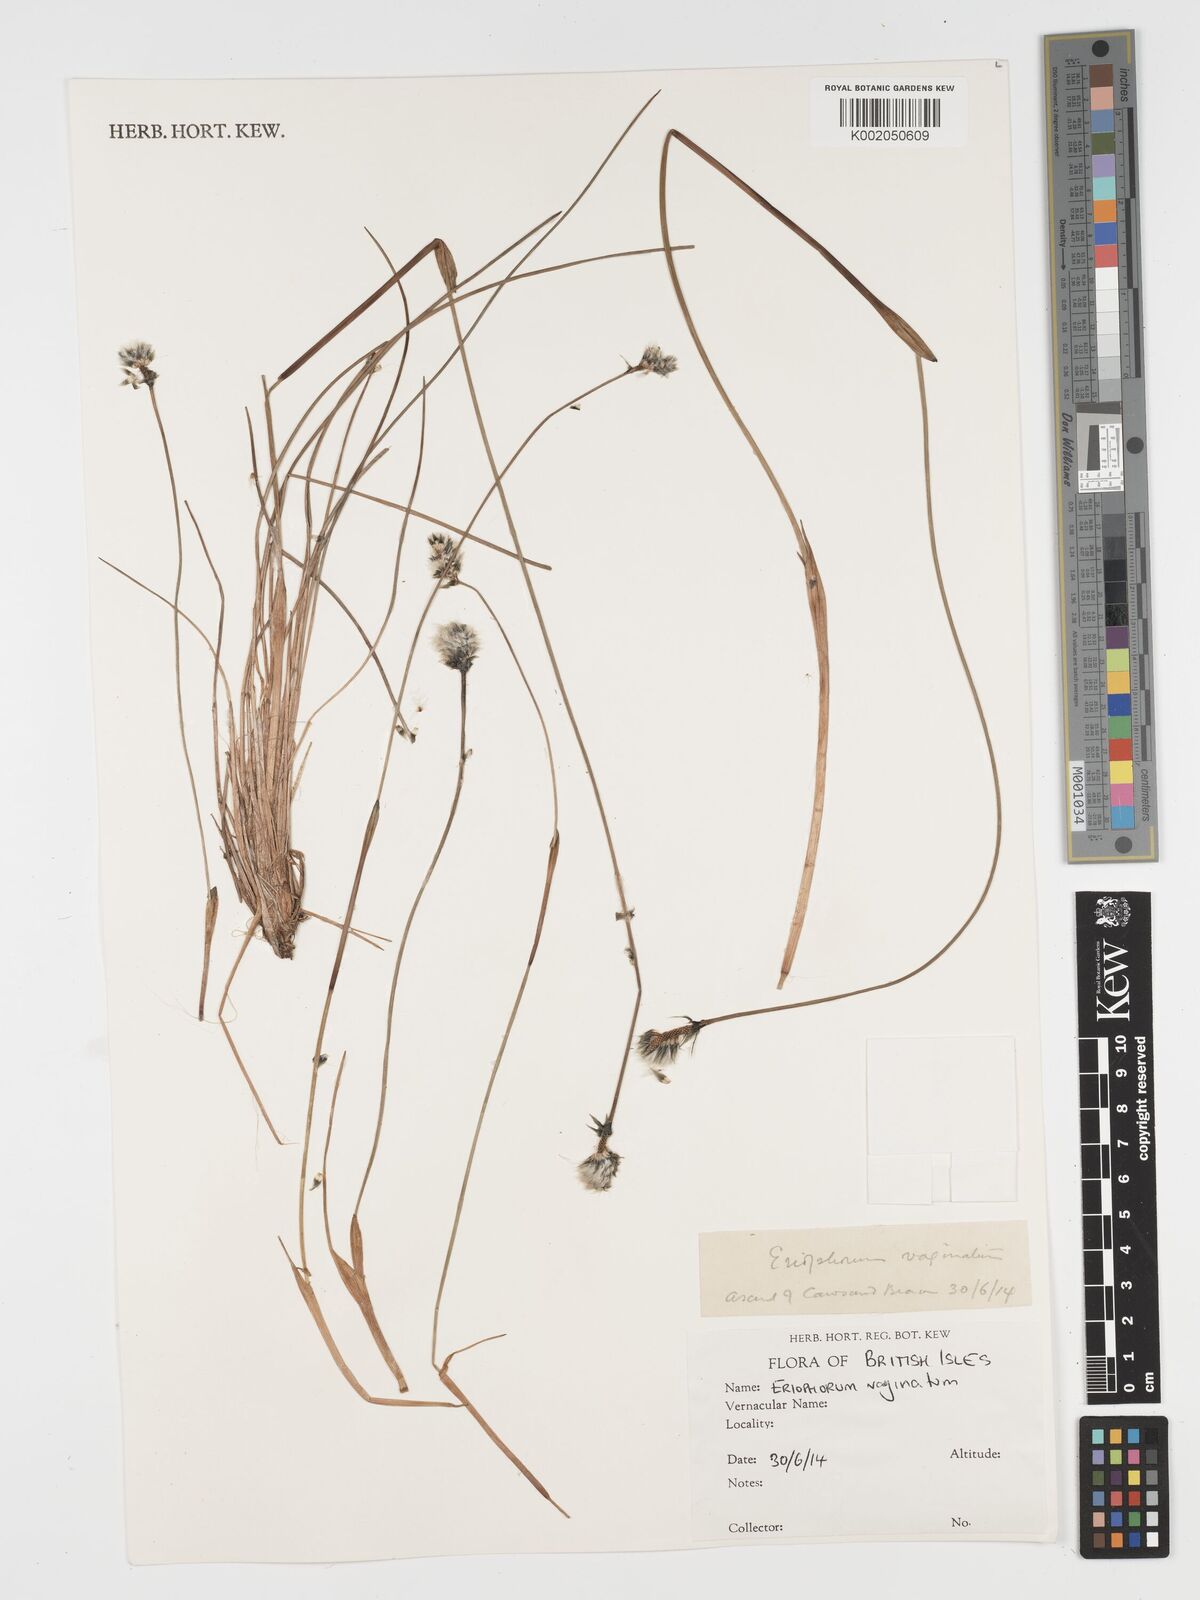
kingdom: Plantae
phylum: Tracheophyta
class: Liliopsida
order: Poales
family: Cyperaceae
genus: Eriophorum
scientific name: Eriophorum vaginatum
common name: Hare's-tail cottongrass
